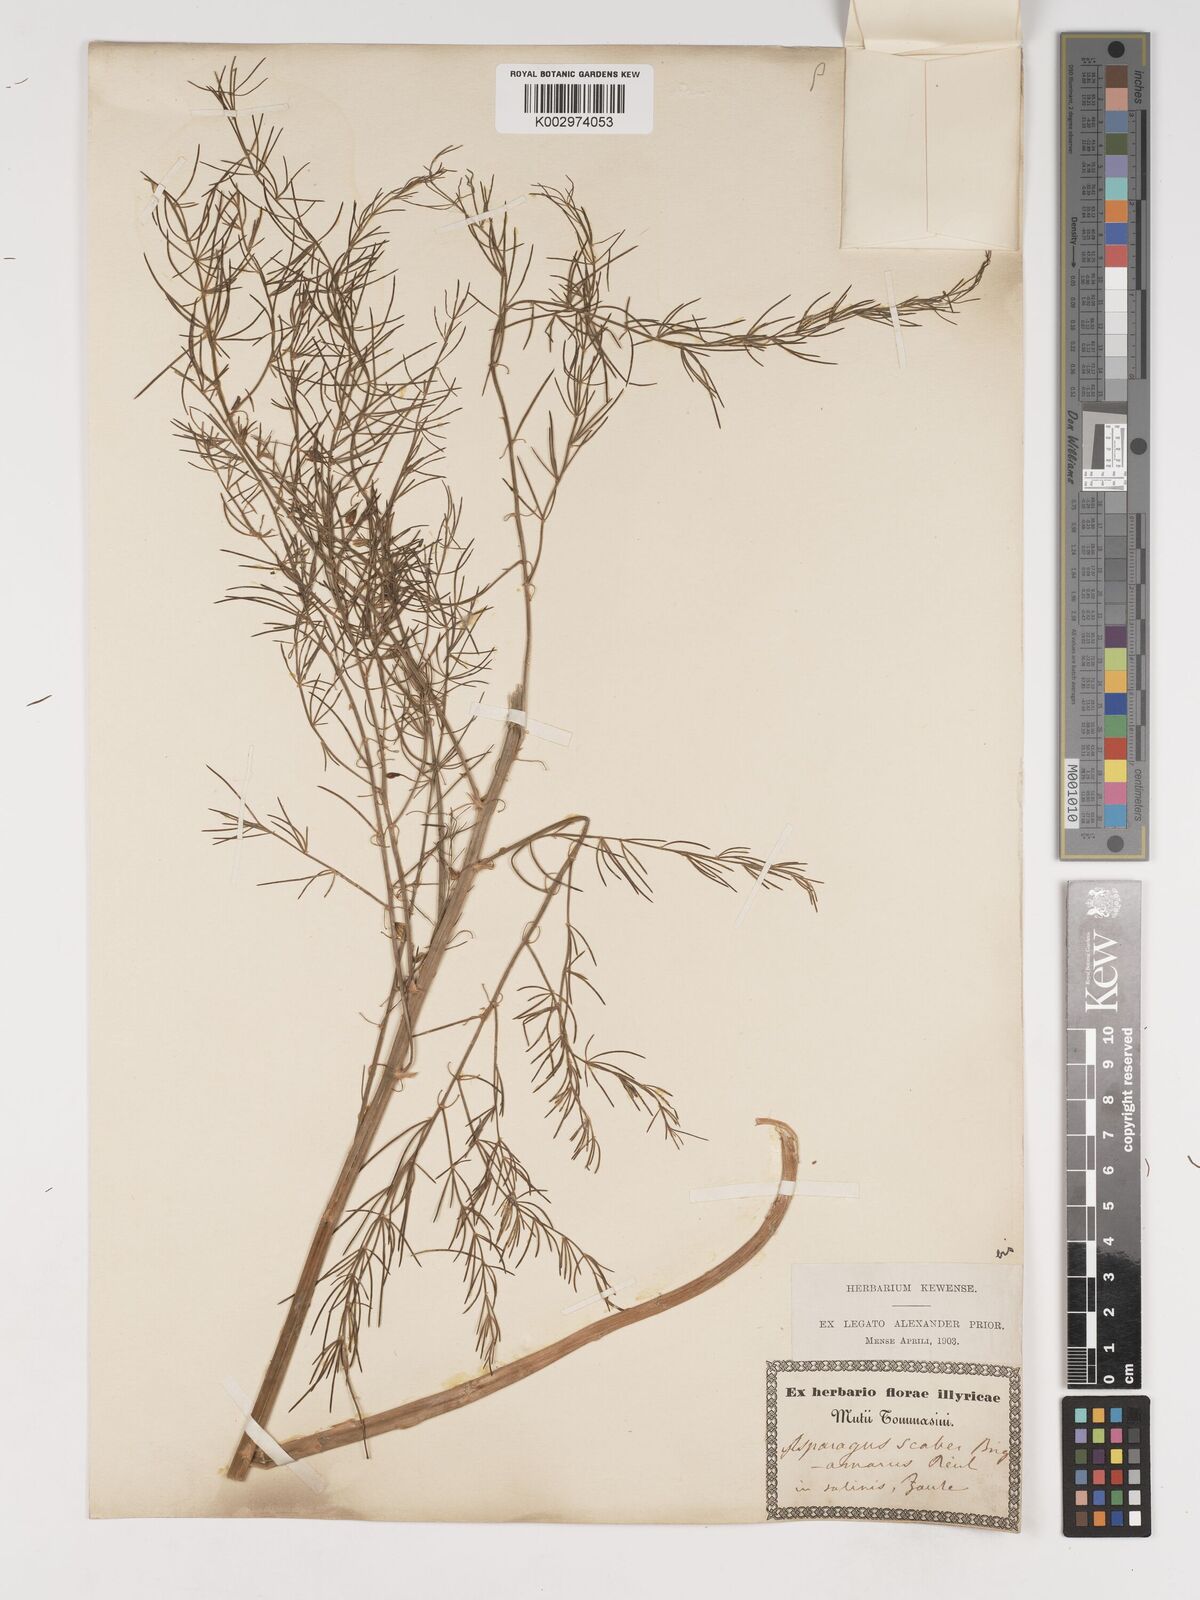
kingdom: Plantae
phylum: Tracheophyta
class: Liliopsida
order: Asparagales
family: Asparagaceae
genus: Asparagus
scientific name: Asparagus maritimus
